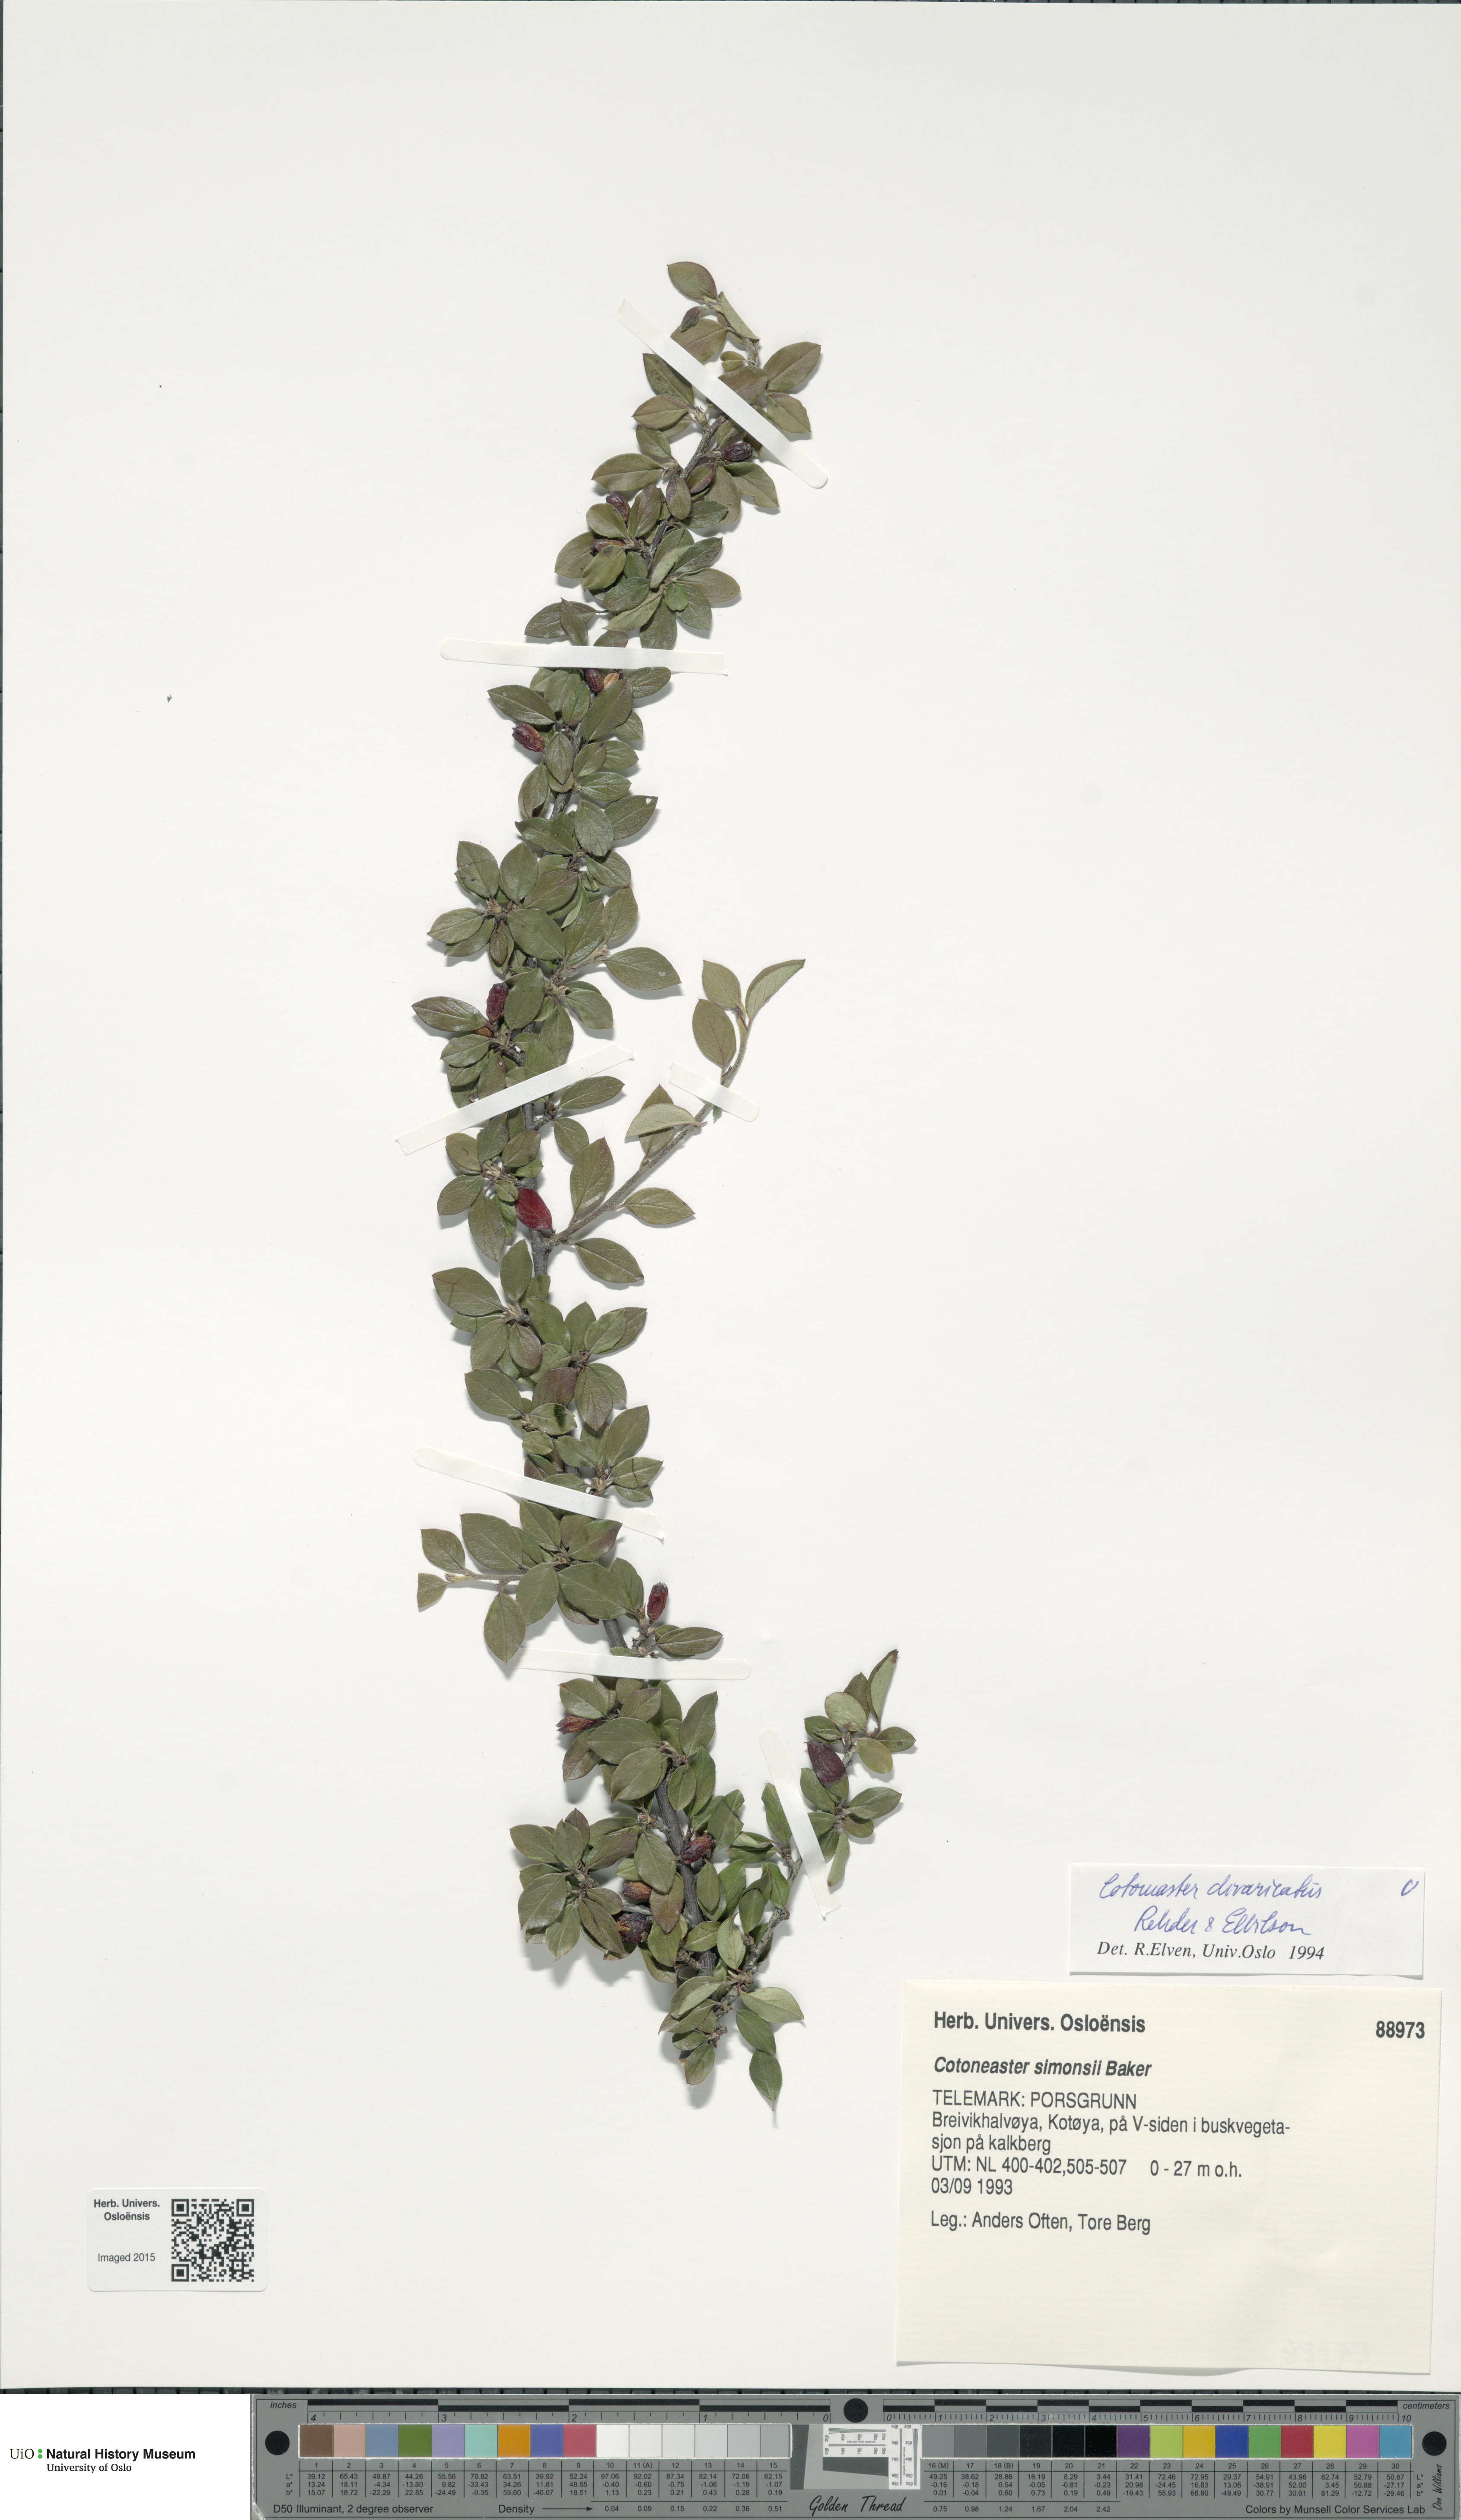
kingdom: Plantae
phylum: Tracheophyta
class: Magnoliopsida
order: Rosales
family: Rosaceae
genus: Cotoneaster
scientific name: Cotoneaster divaricatus
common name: Spreading cotoneaster
